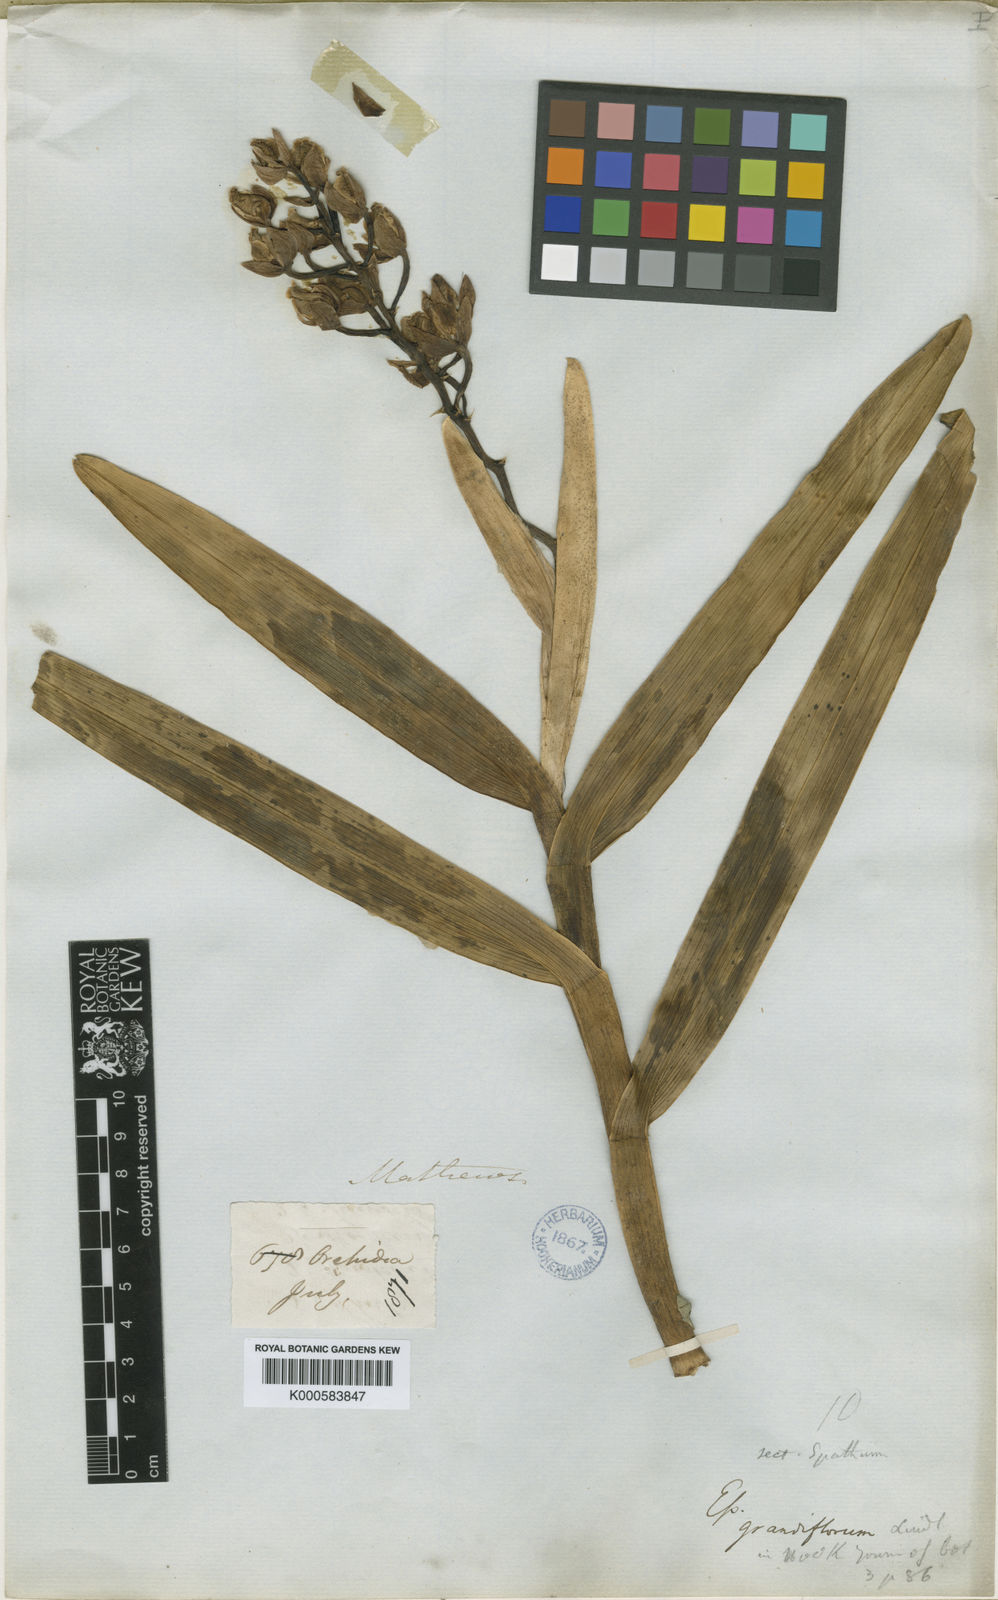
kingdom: Plantae
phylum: Tracheophyta
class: Liliopsida
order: Asparagales
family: Orchidaceae
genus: Epidendrum
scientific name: Epidendrum sanderi
